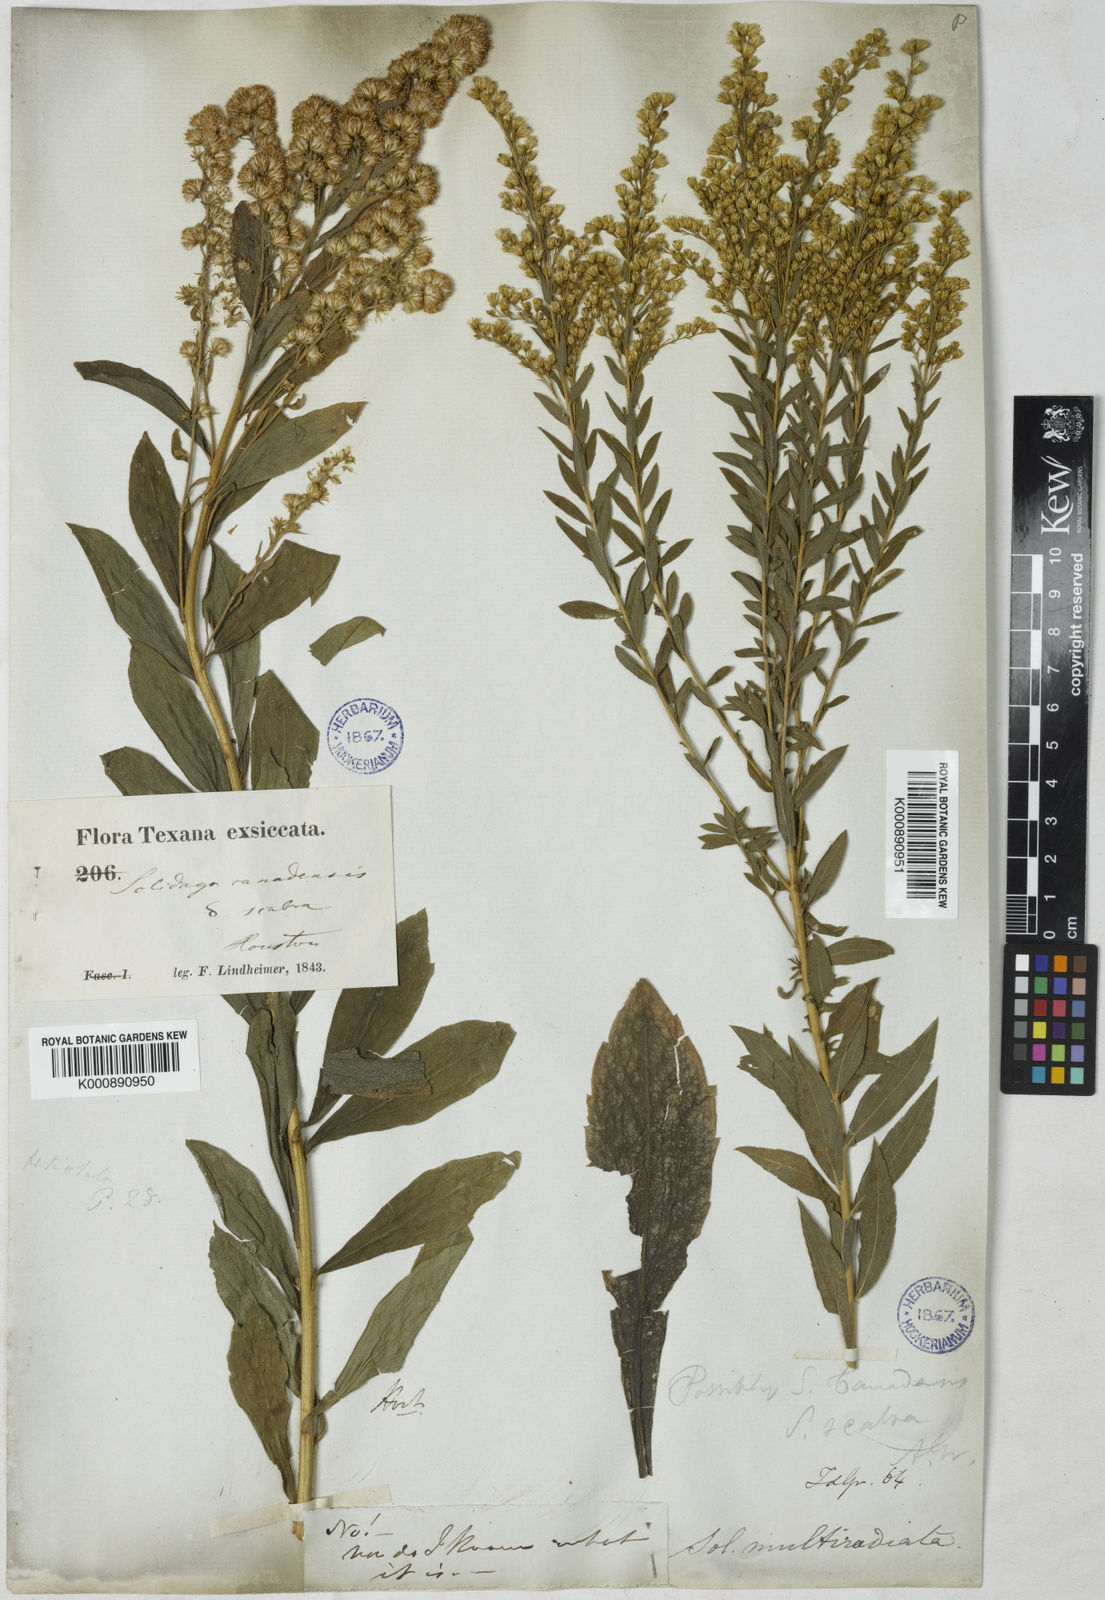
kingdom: Plantae
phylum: Tracheophyta
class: Magnoliopsida
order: Asterales
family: Asteraceae
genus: Solidago
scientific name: Solidago altissima
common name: Late goldenrod
